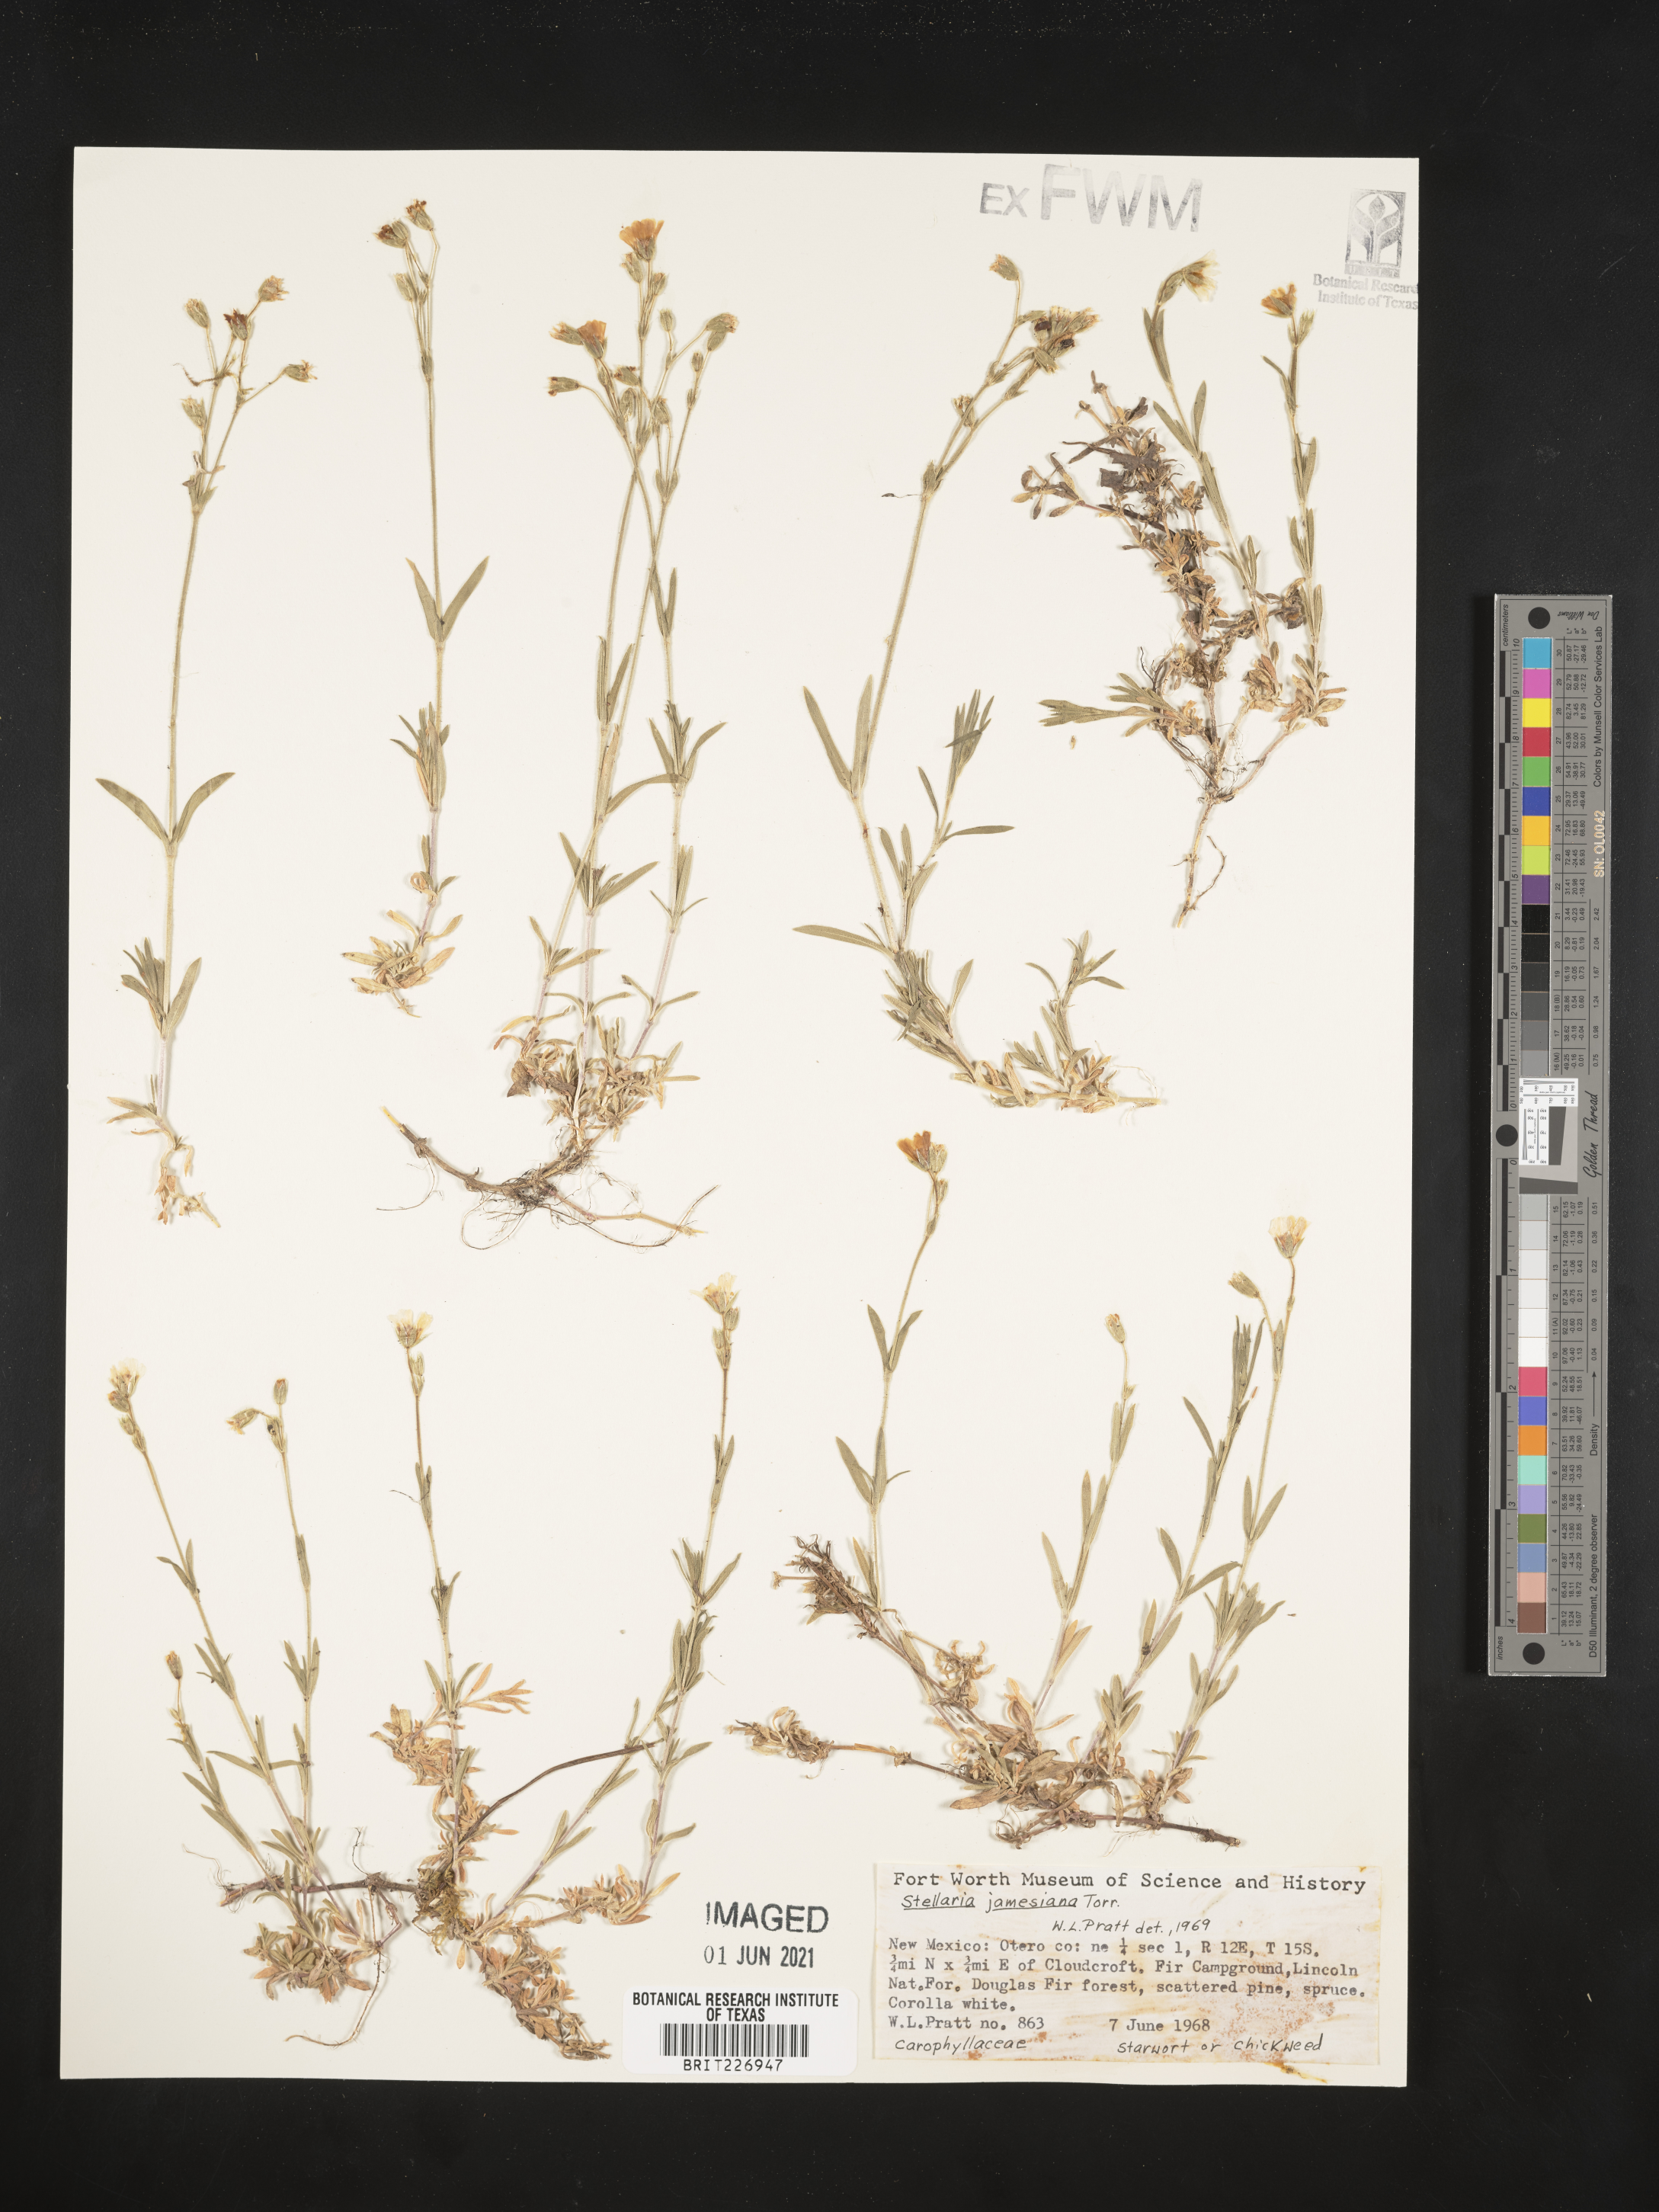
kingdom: Plantae
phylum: Tracheophyta
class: Magnoliopsida
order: Caryophyllales
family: Caryophyllaceae
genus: Pseudostellaria
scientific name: Pseudostellaria
